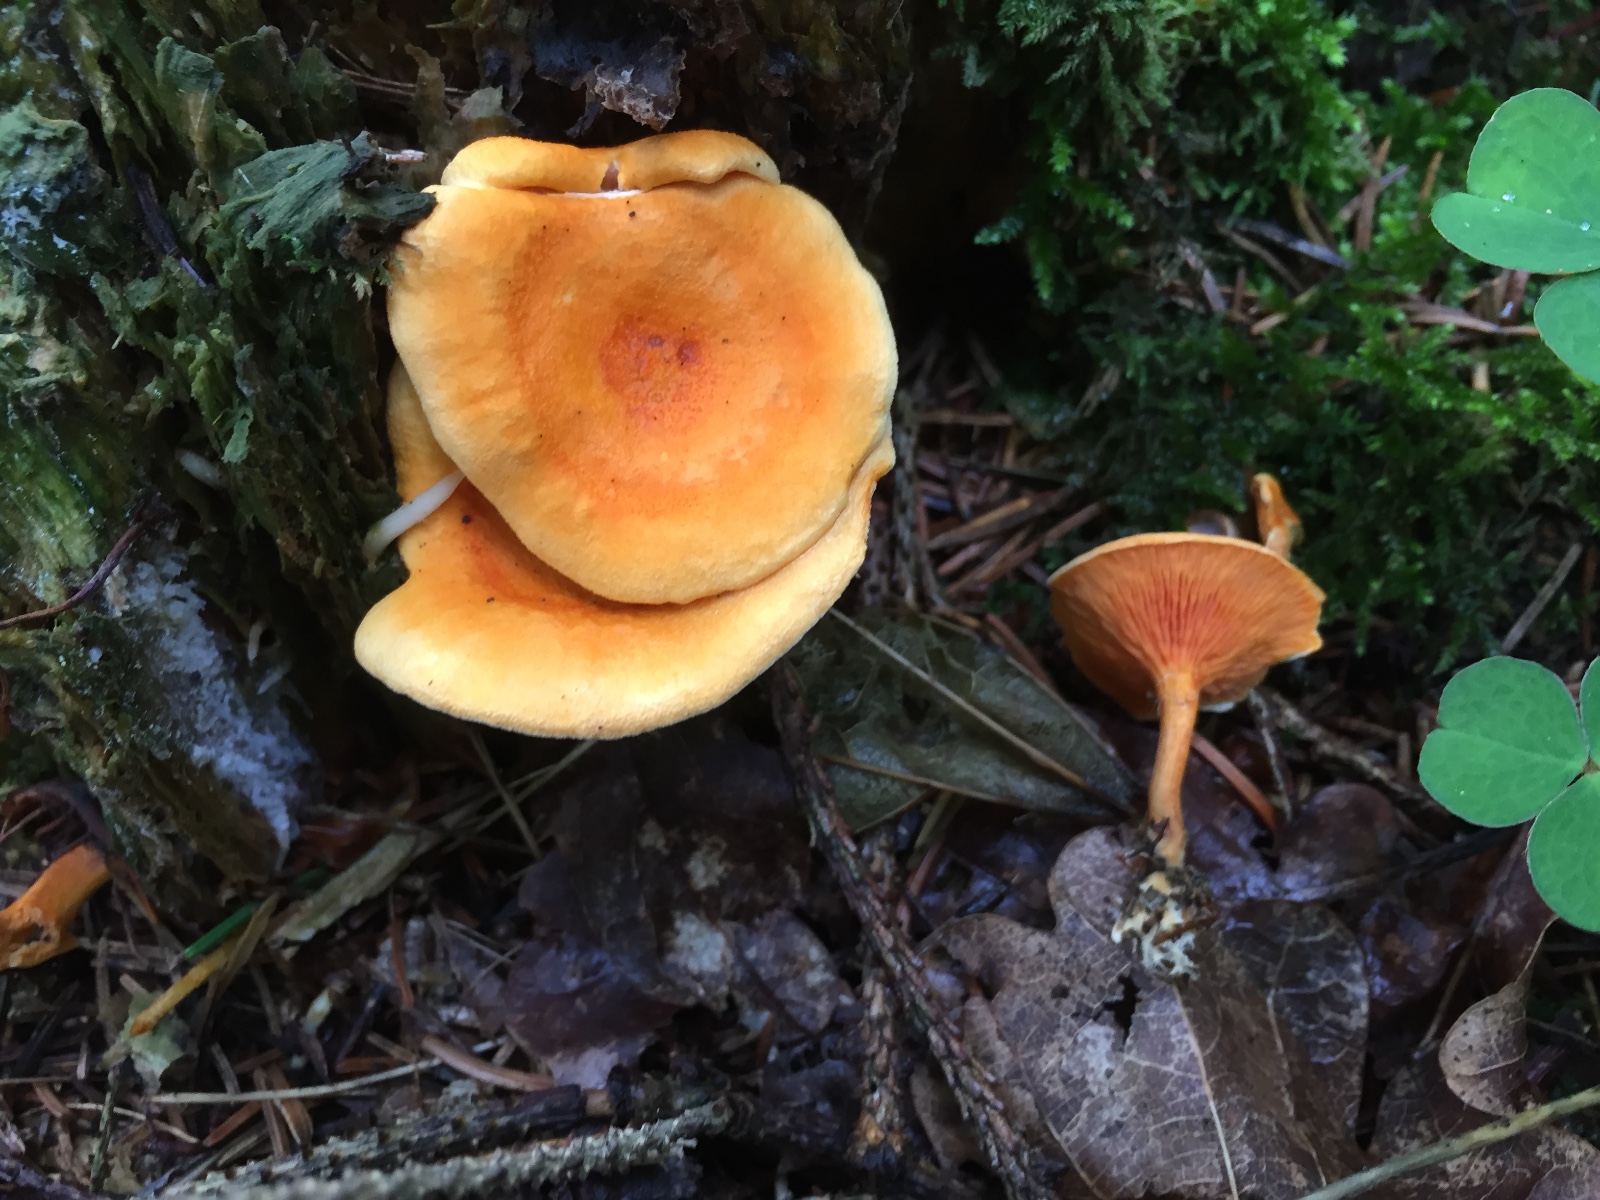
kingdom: Fungi
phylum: Basidiomycota
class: Agaricomycetes
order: Boletales
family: Hygrophoropsidaceae
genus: Hygrophoropsis
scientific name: Hygrophoropsis aurantiaca
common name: almindelig orangekantarel
